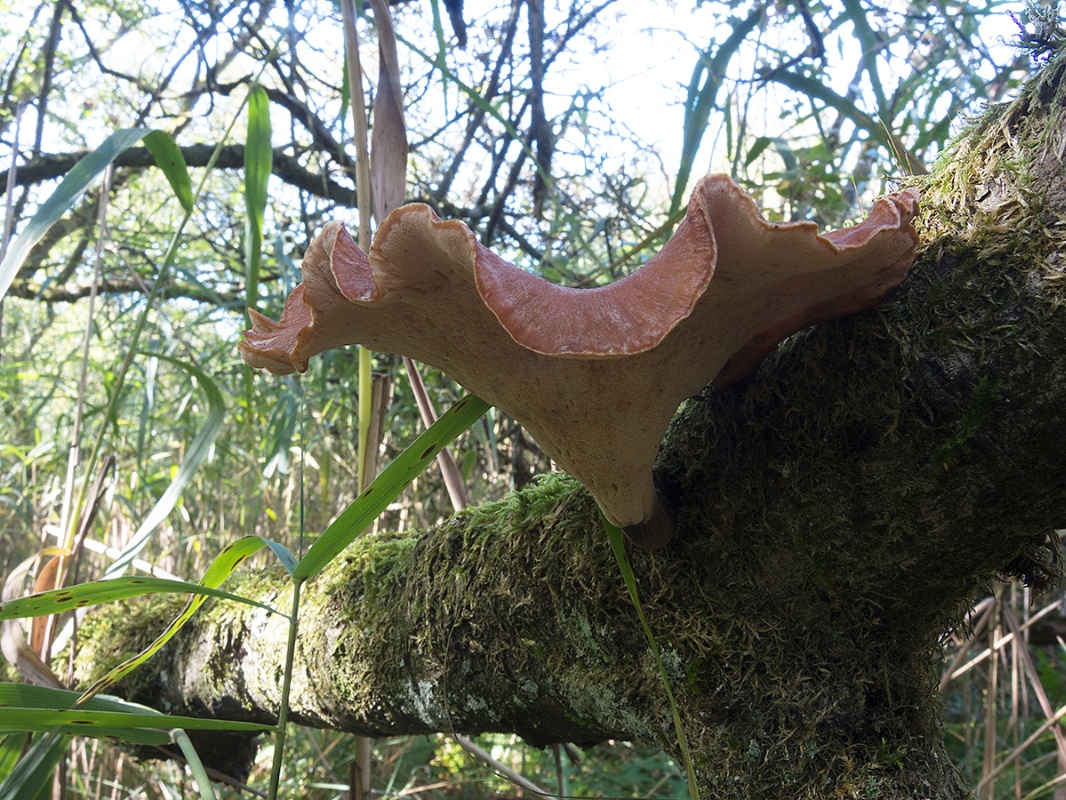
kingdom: Fungi
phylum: Basidiomycota
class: Agaricomycetes
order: Polyporales
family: Polyporaceae
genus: Picipes
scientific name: Picipes tubaeformis
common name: trompet-stilkporesvamp
